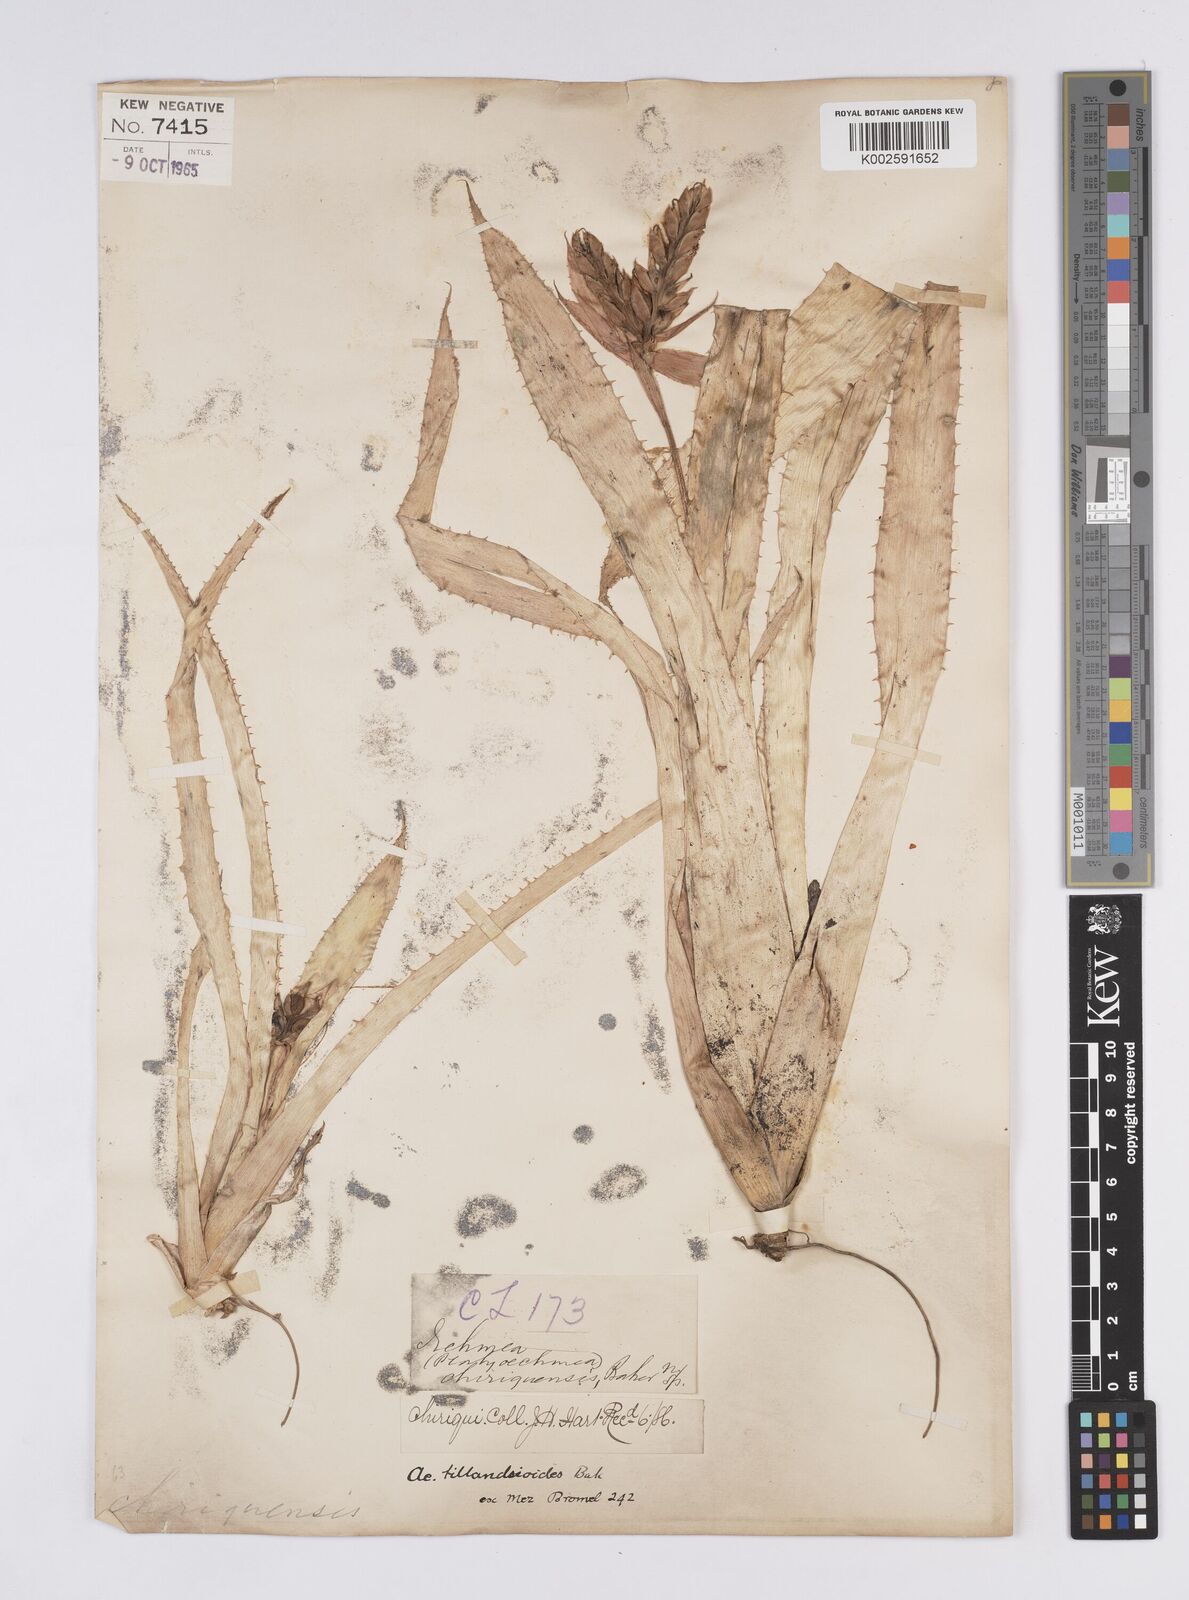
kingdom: Plantae
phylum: Tracheophyta
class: Liliopsida
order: Poales
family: Bromeliaceae
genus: Aechmea
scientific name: Aechmea tillandsioides
